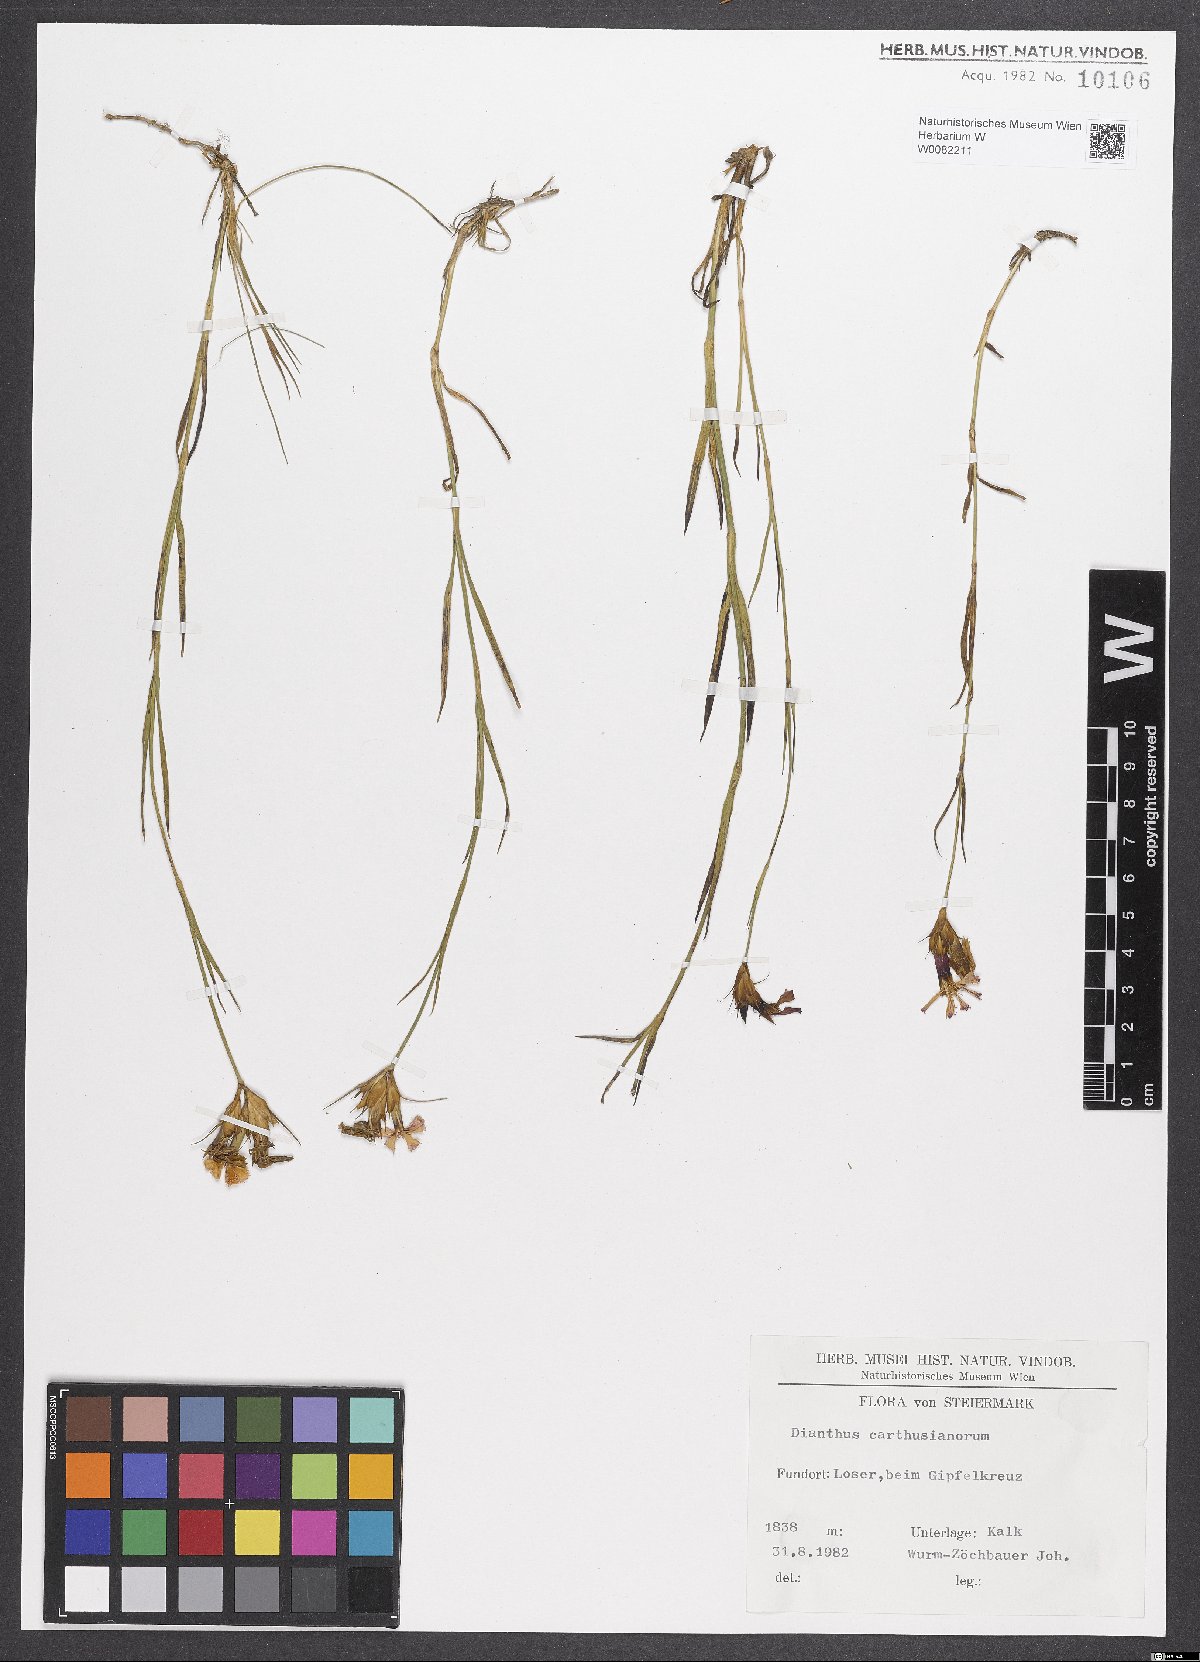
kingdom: Plantae
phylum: Tracheophyta
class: Magnoliopsida
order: Caryophyllales
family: Caryophyllaceae
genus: Dianthus
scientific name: Dianthus carthusianorum
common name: Carthusian pink
